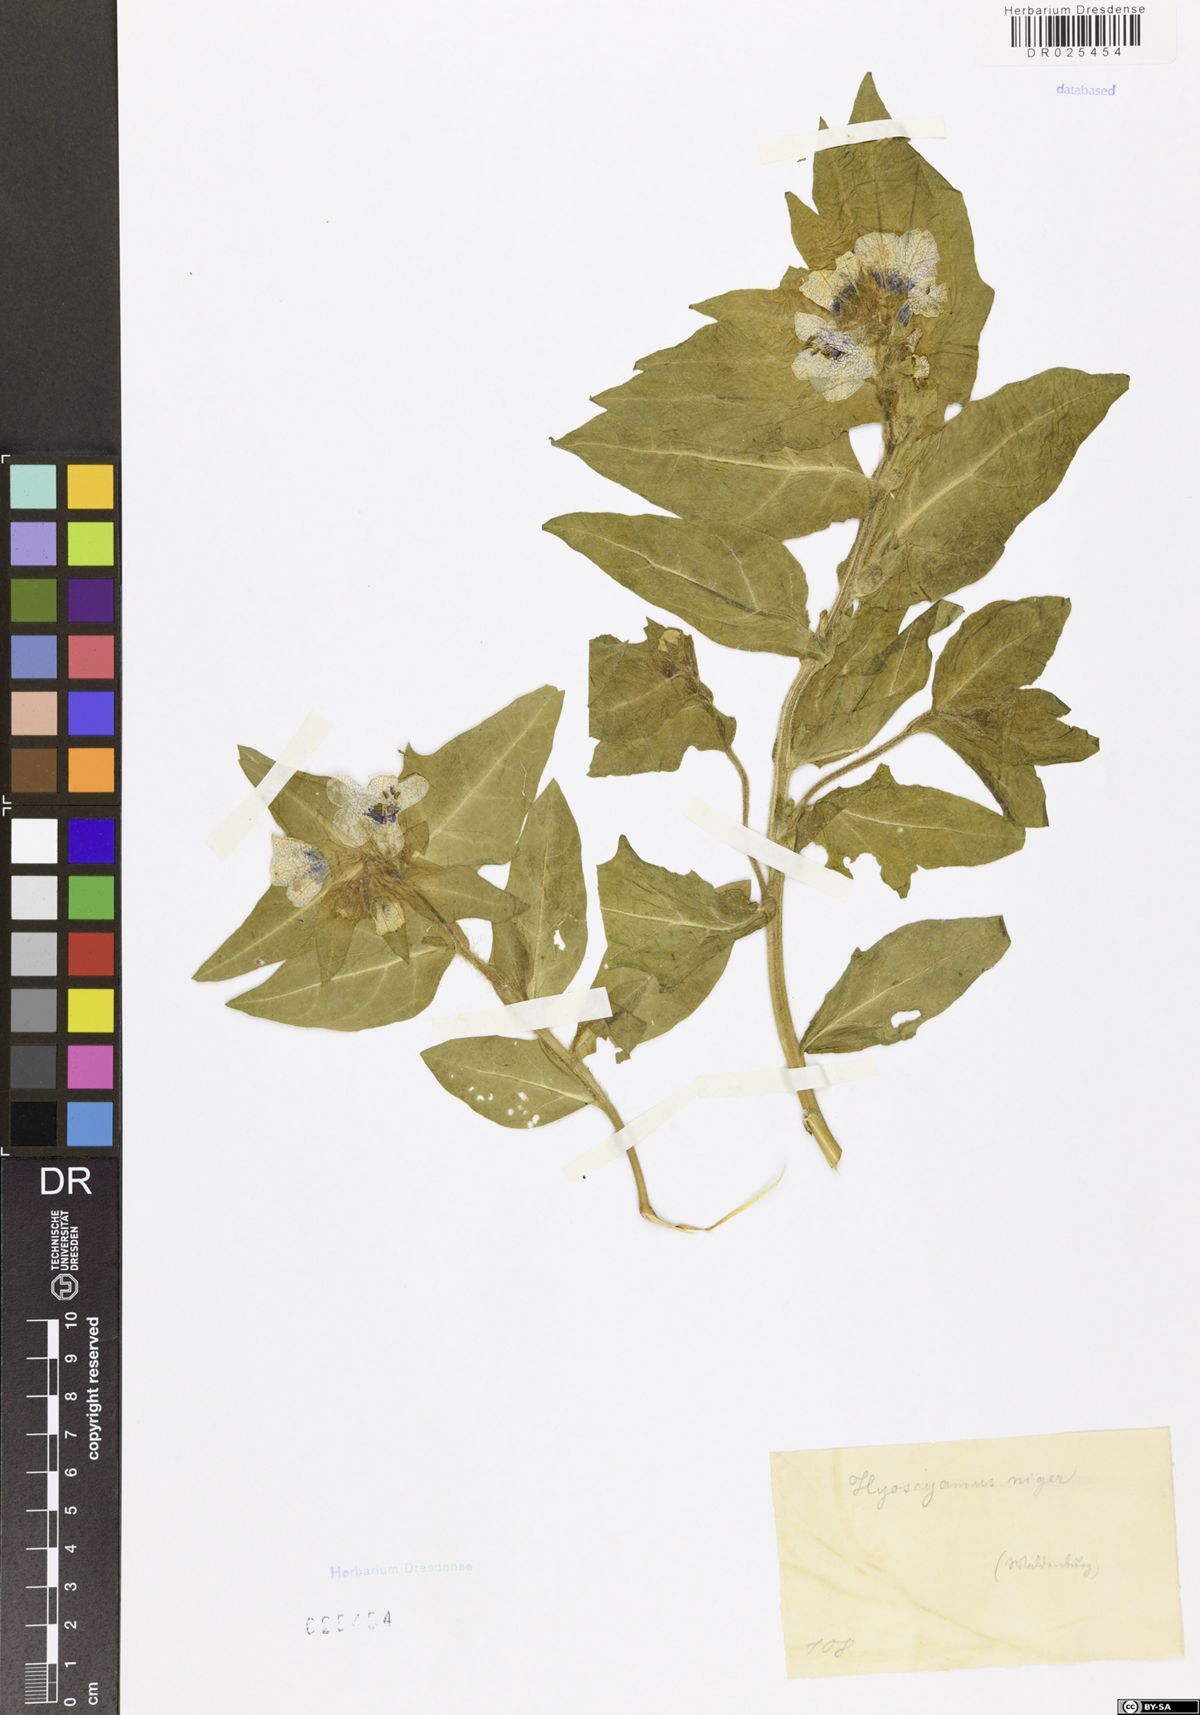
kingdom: Plantae
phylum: Tracheophyta
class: Magnoliopsida
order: Solanales
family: Solanaceae
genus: Hyoscyamus
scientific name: Hyoscyamus niger
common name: Henbane
